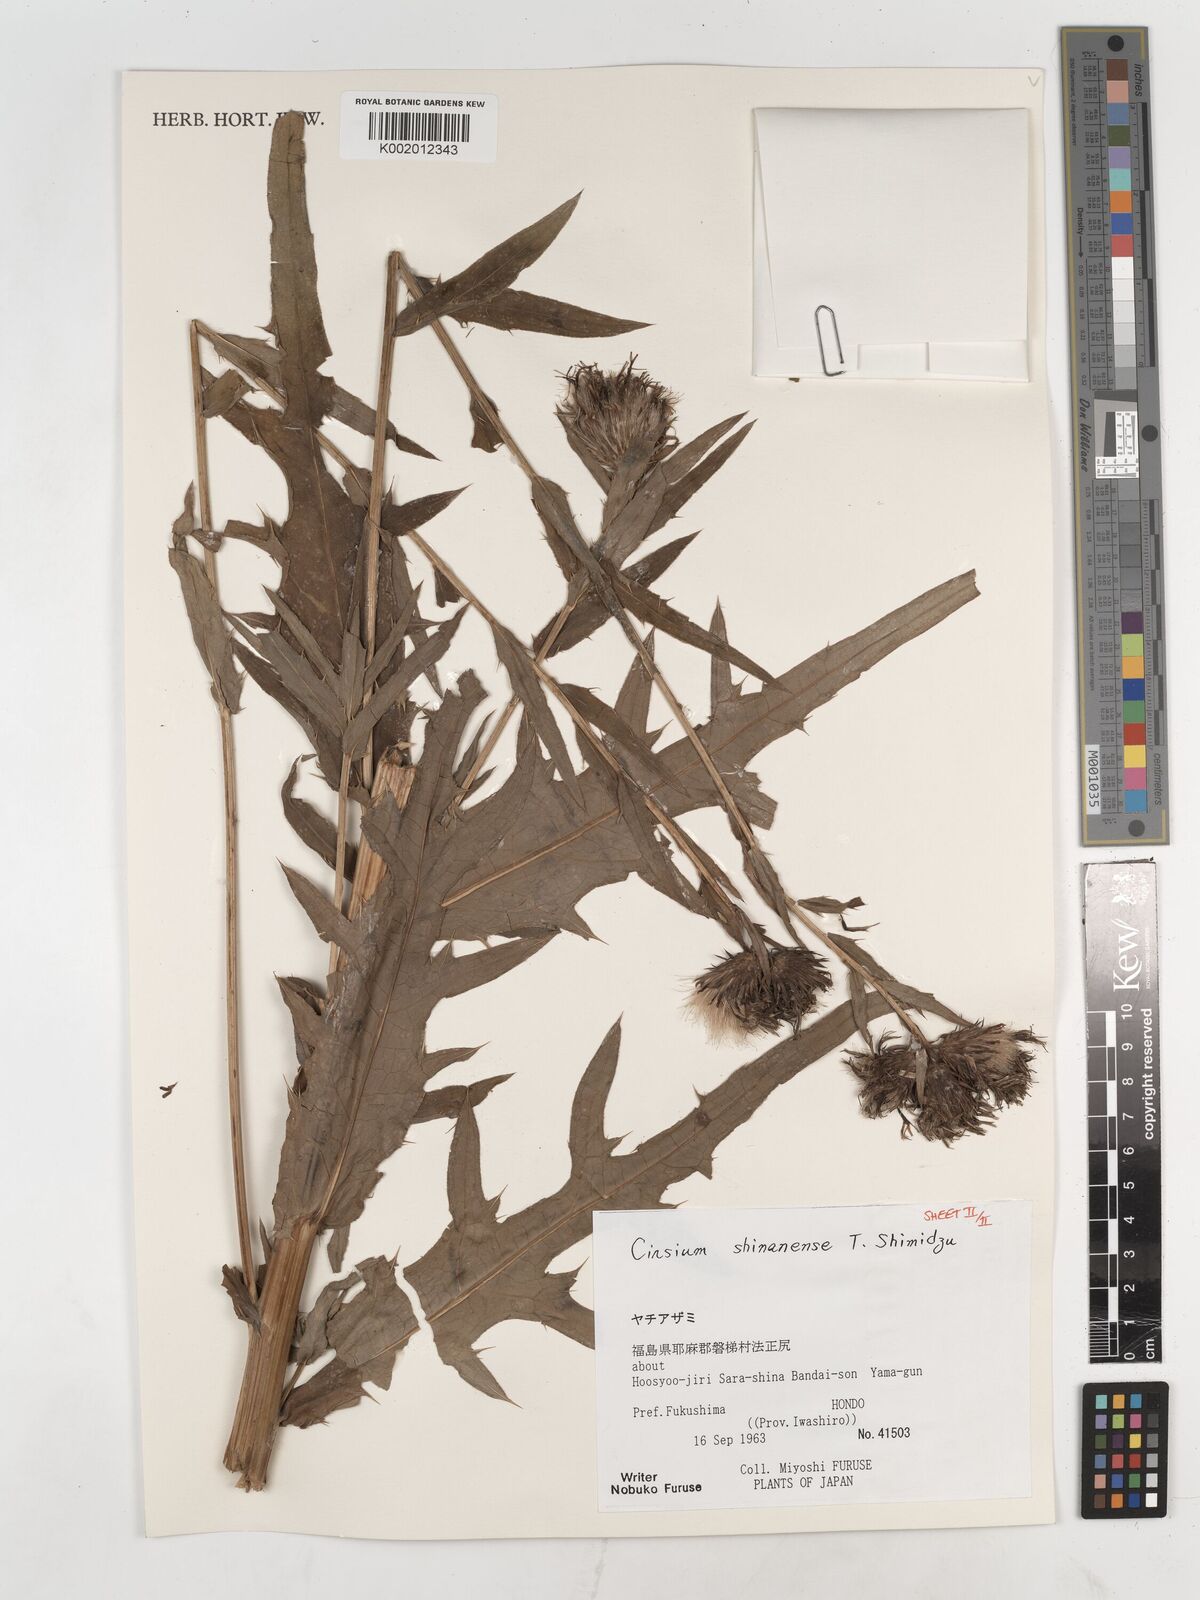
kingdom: Plantae
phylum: Tracheophyta
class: Magnoliopsida
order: Asterales
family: Asteraceae
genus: Cirsium
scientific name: Cirsium shinanense
